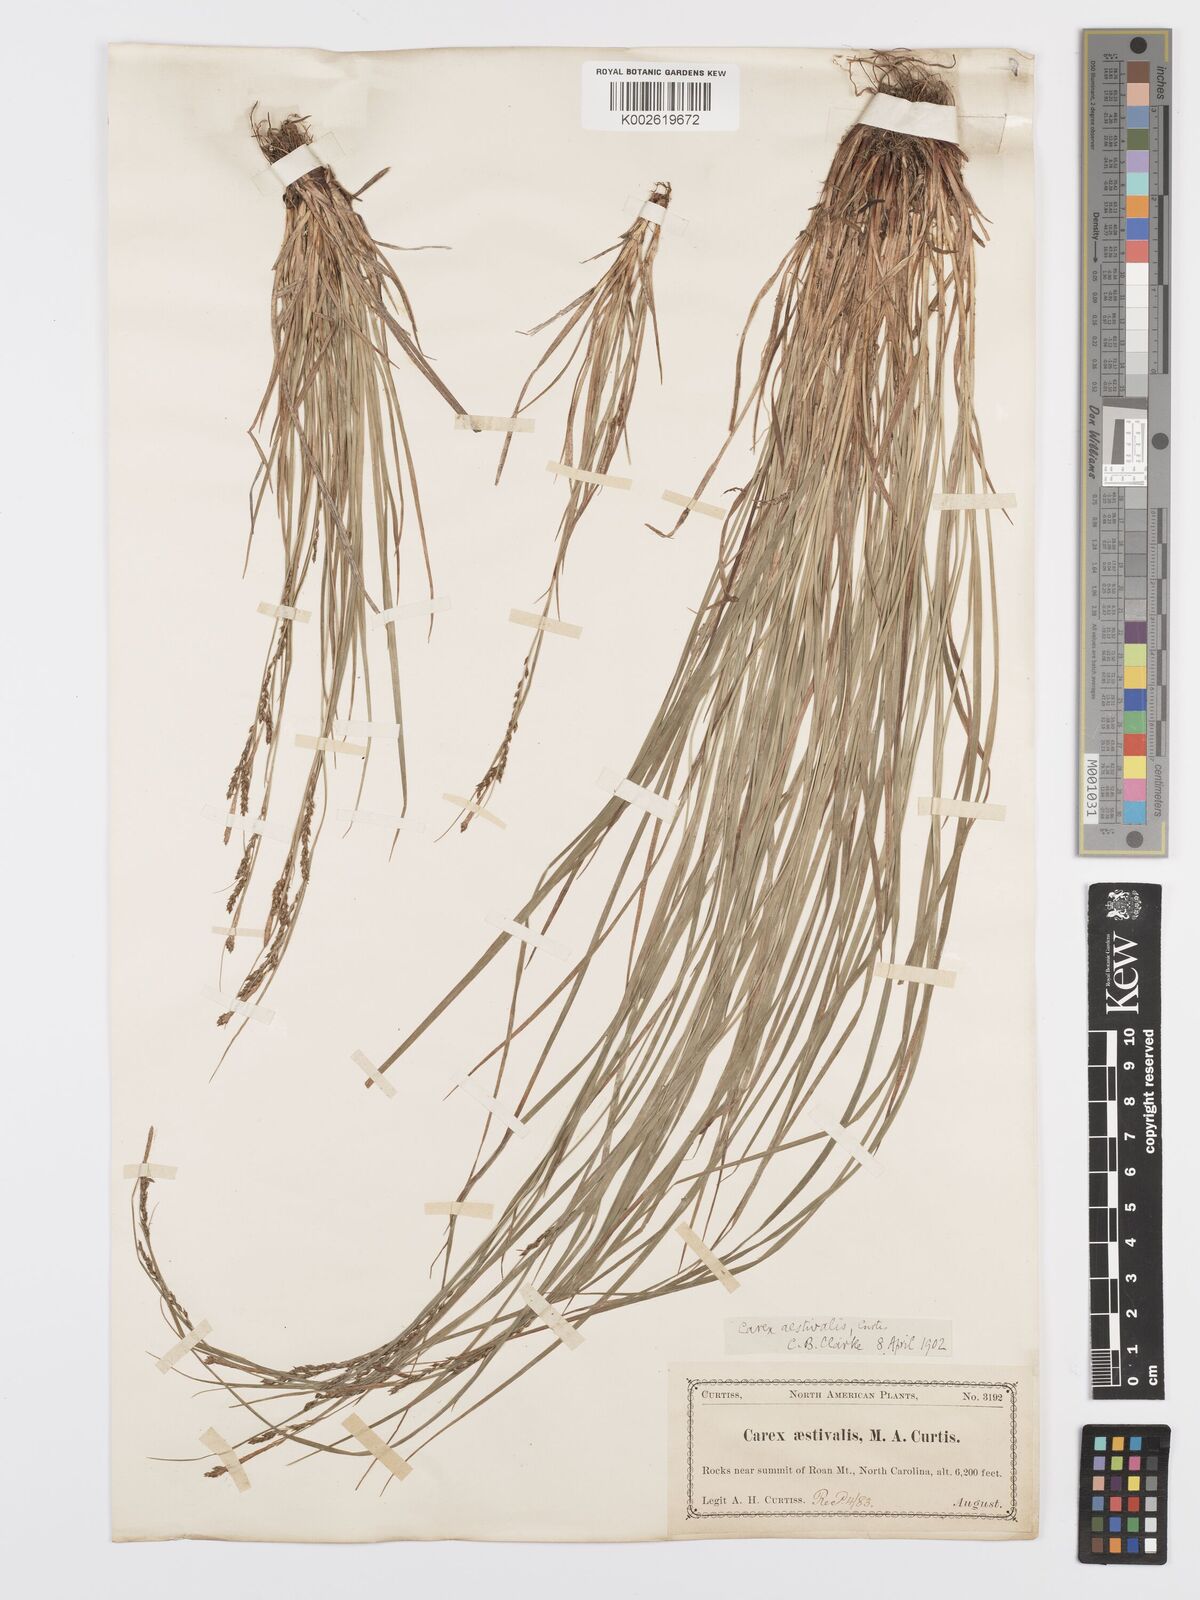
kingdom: Plantae
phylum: Tracheophyta
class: Liliopsida
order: Poales
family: Cyperaceae
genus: Carex
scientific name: Carex aestivalis
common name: Summer sedge
